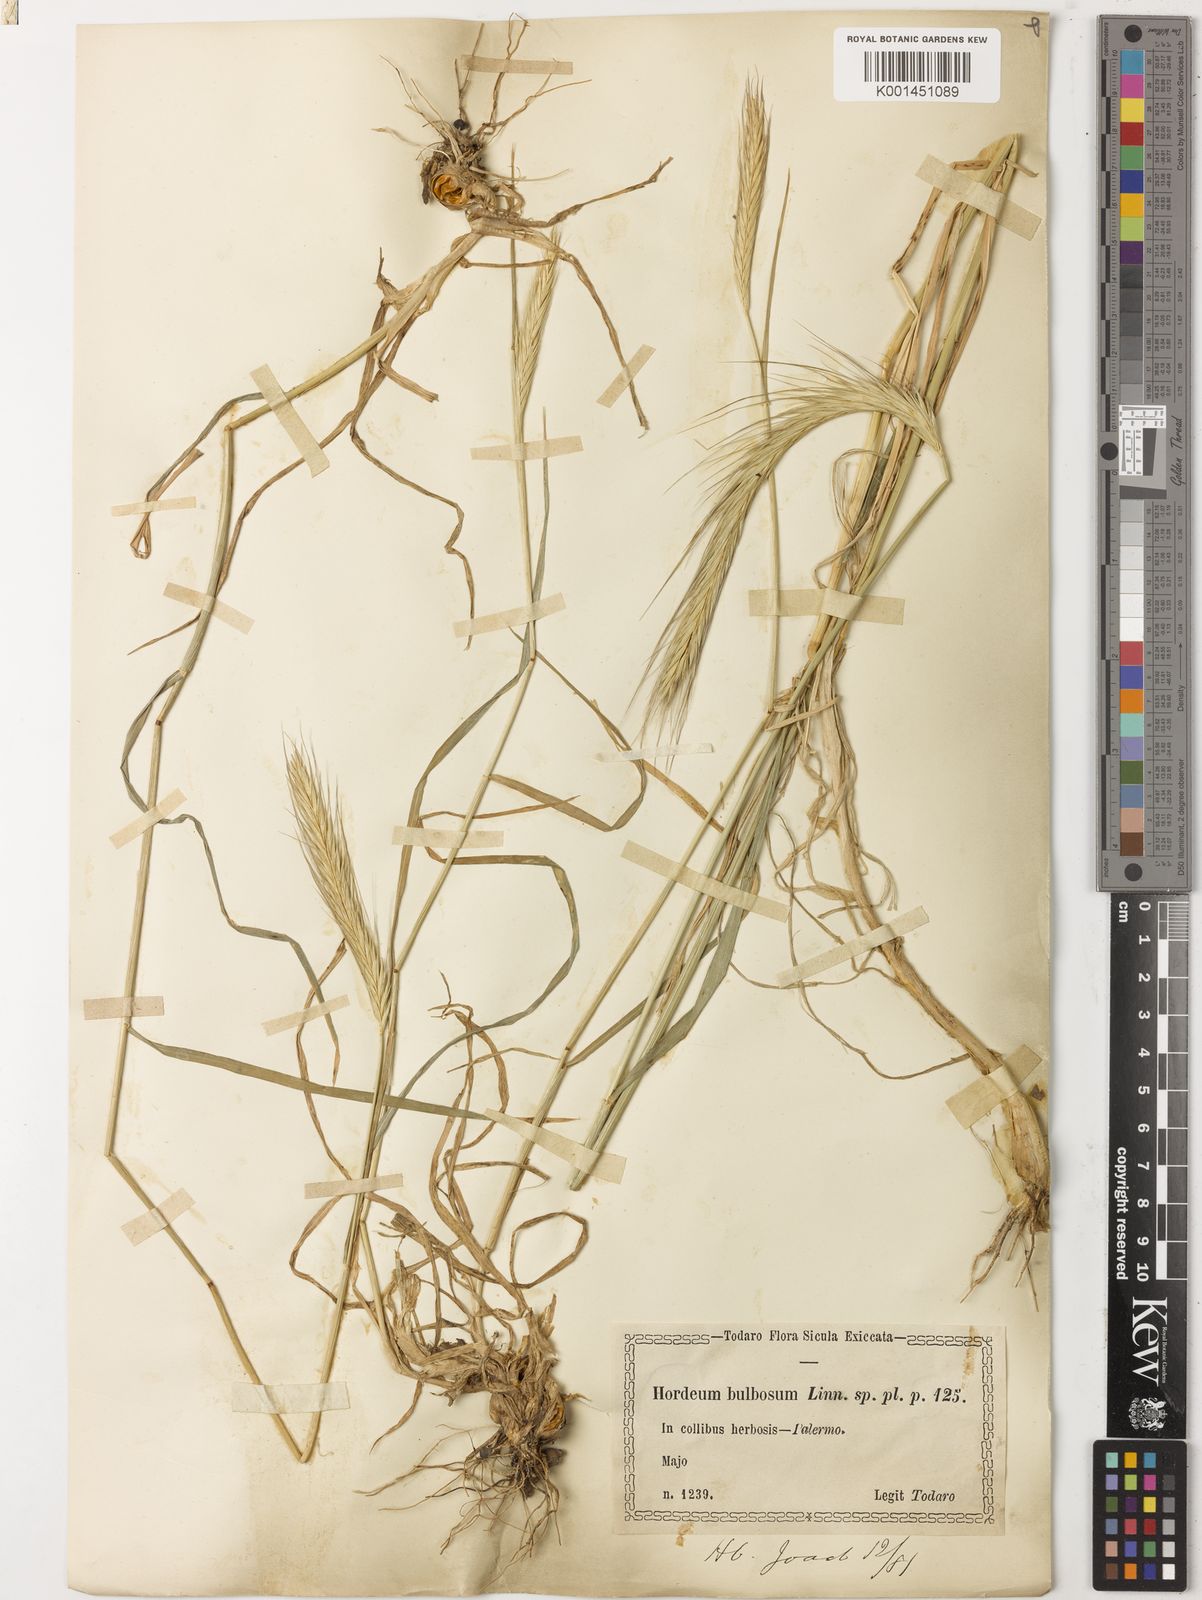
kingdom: Plantae
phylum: Tracheophyta
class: Liliopsida
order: Poales
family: Poaceae
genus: Hordeum
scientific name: Hordeum bulbosum
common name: Bulbous barley
